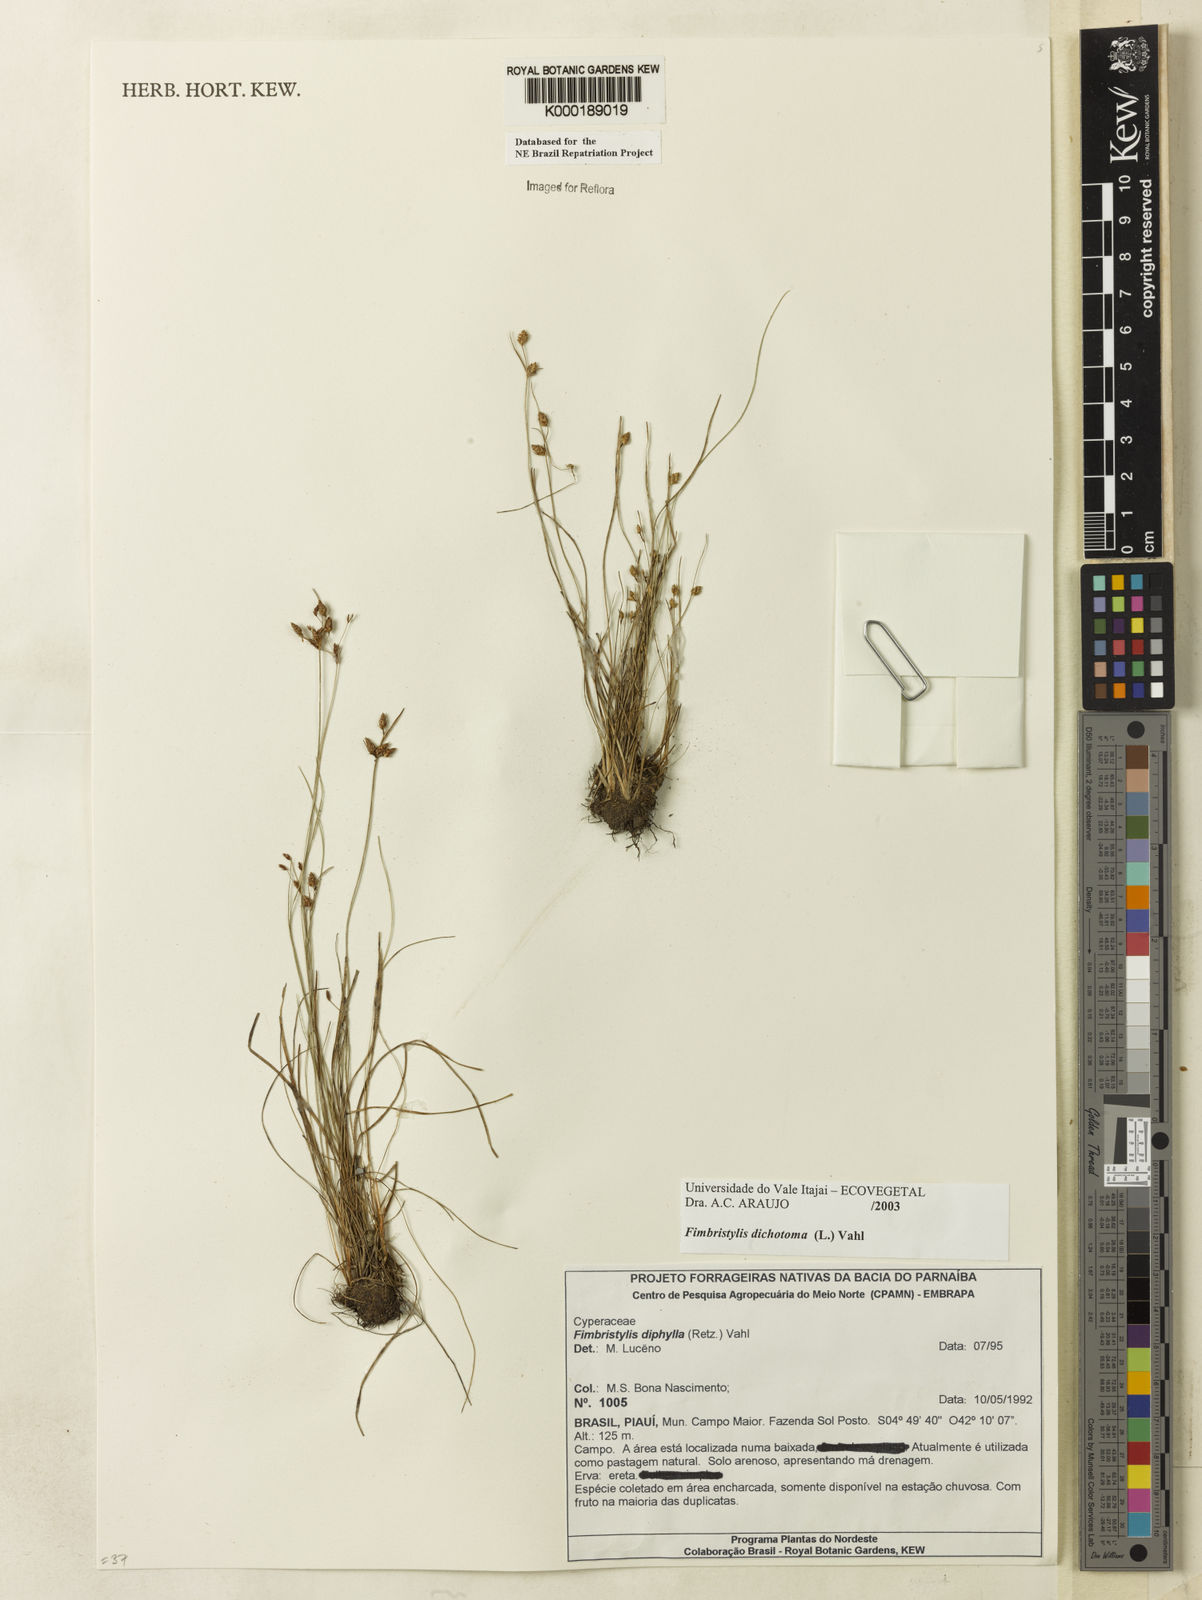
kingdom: Plantae
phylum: Tracheophyta
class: Liliopsida
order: Poales
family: Cyperaceae
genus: Fimbristylis
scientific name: Fimbristylis dichotoma
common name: Forked fimbry
